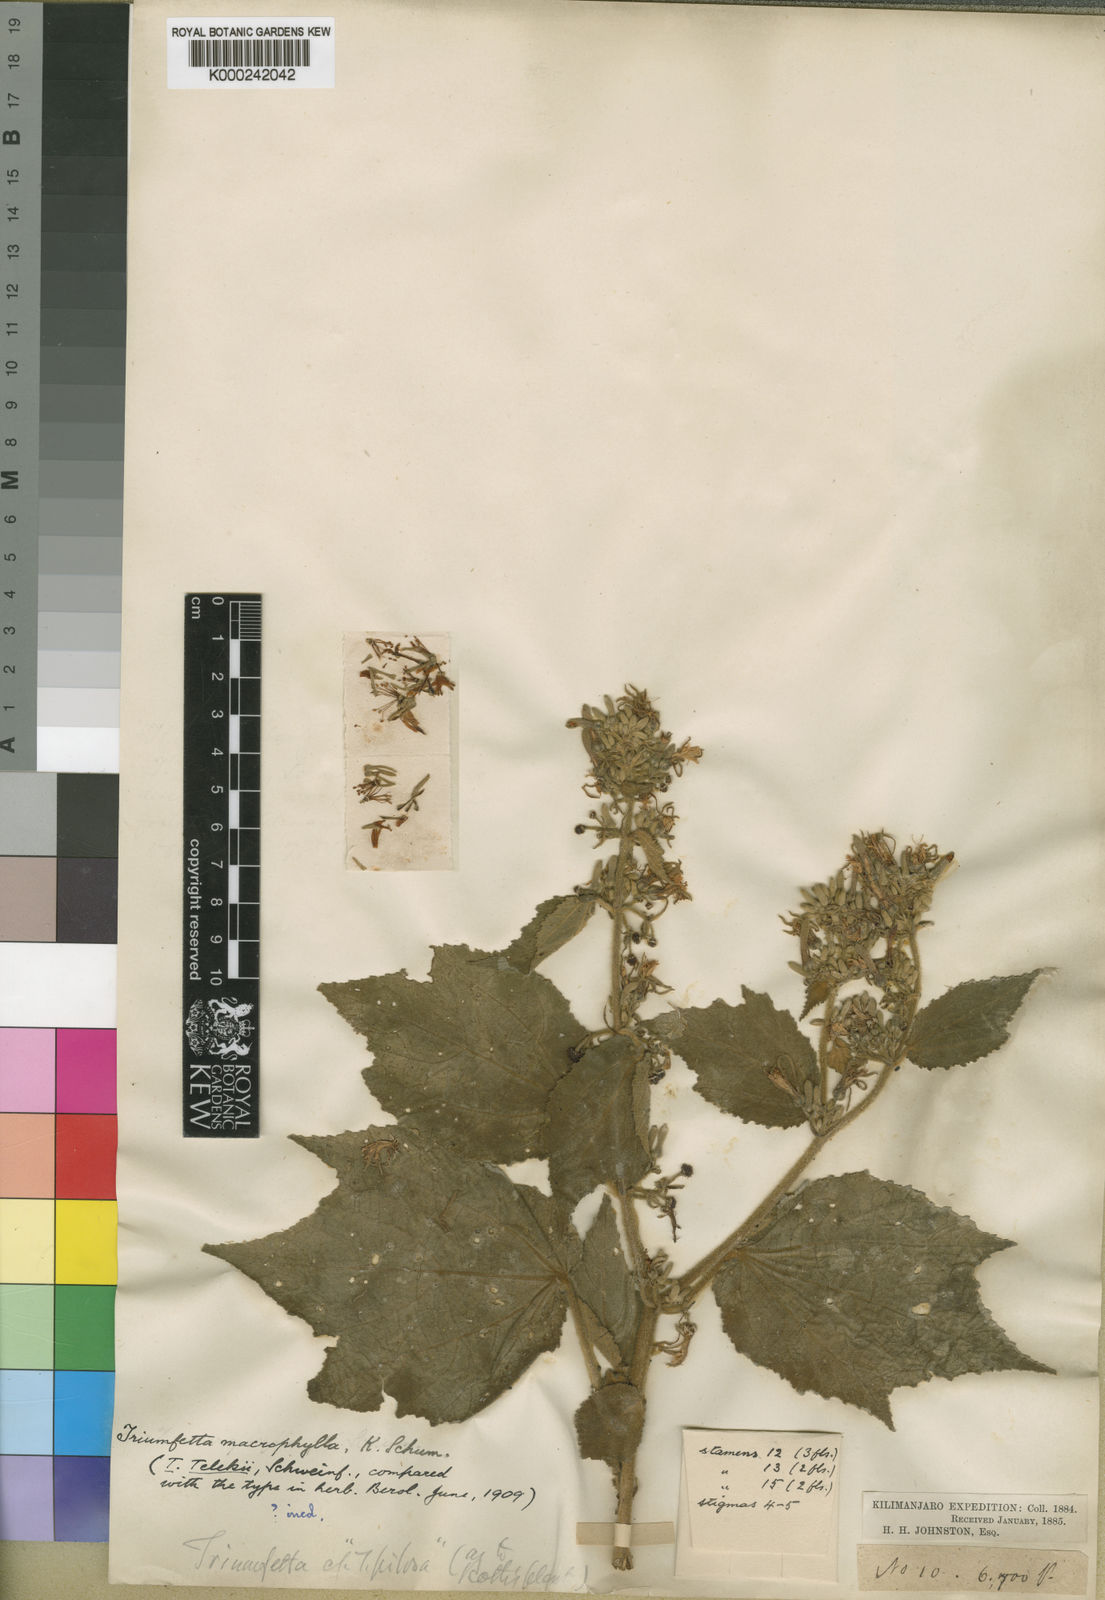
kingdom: Plantae
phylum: Tracheophyta
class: Magnoliopsida
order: Malvales
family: Malvaceae
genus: Triumfetta
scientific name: Triumfetta brachyceras
